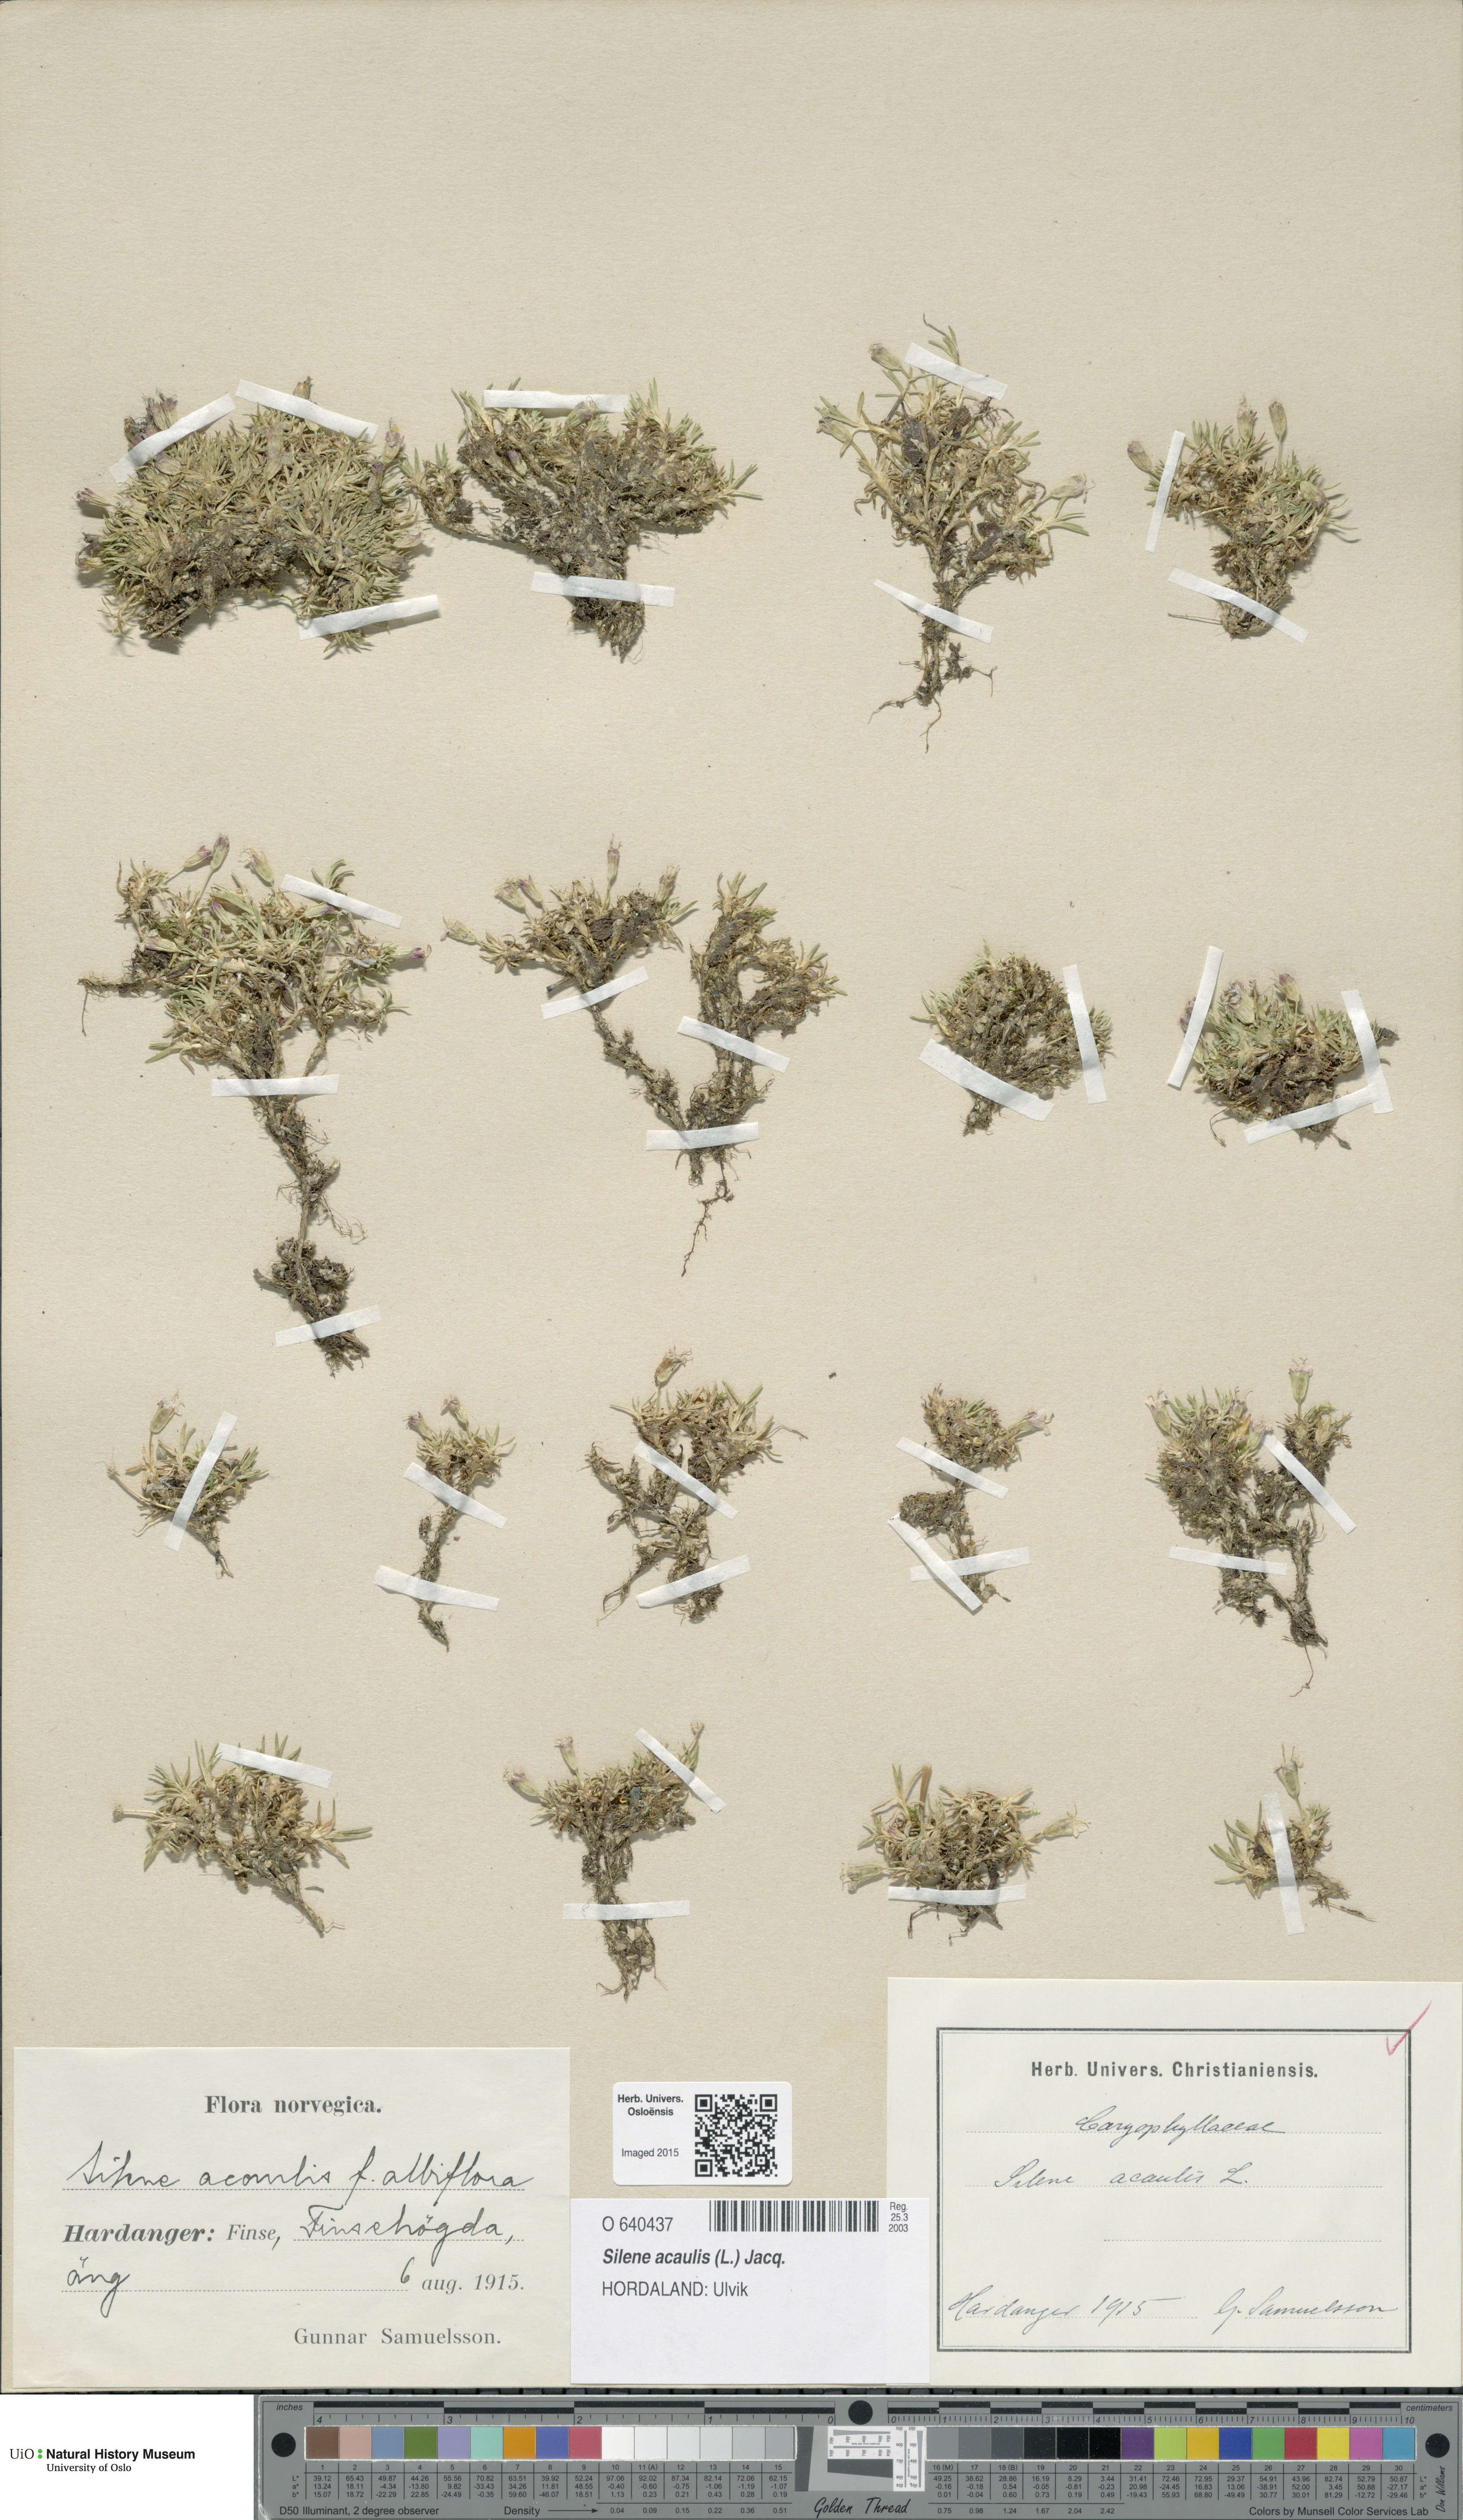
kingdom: Plantae
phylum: Tracheophyta
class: Magnoliopsida
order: Caryophyllales
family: Caryophyllaceae
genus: Silene
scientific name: Silene acaulis
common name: Moss campion
